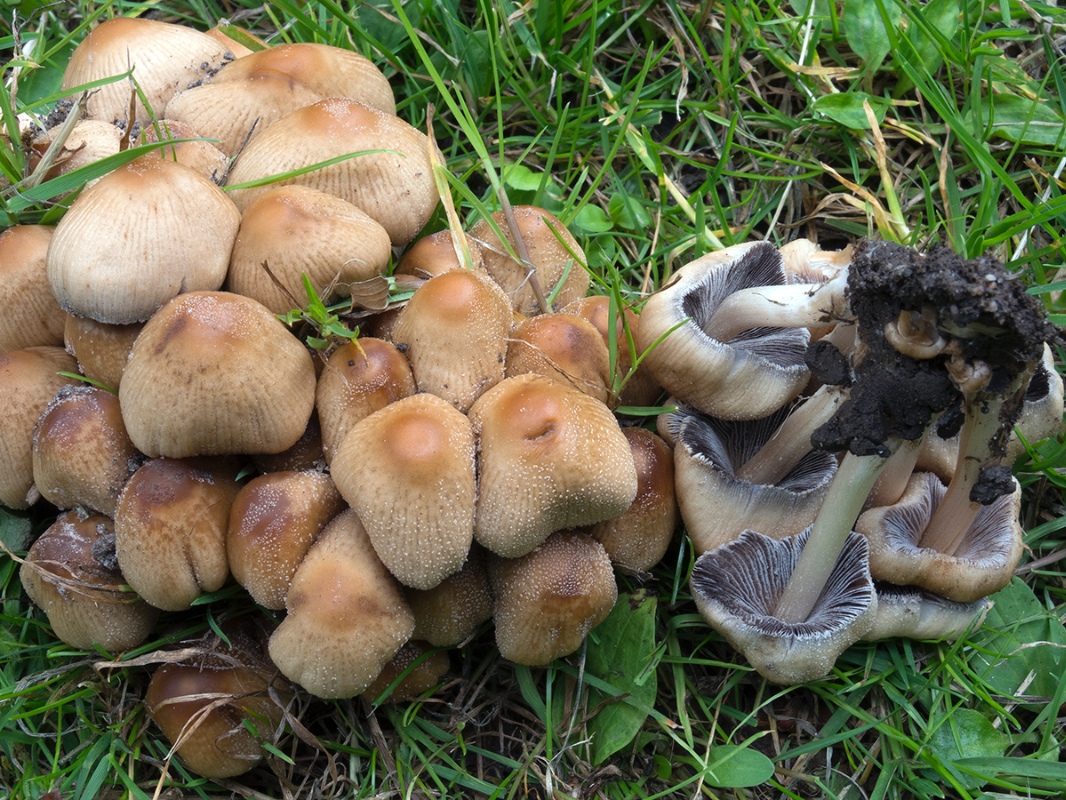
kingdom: Fungi
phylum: Basidiomycota
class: Agaricomycetes
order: Agaricales
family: Psathyrellaceae
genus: Coprinellus
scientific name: Coprinellus micaceus
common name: glimmer-blækhat
